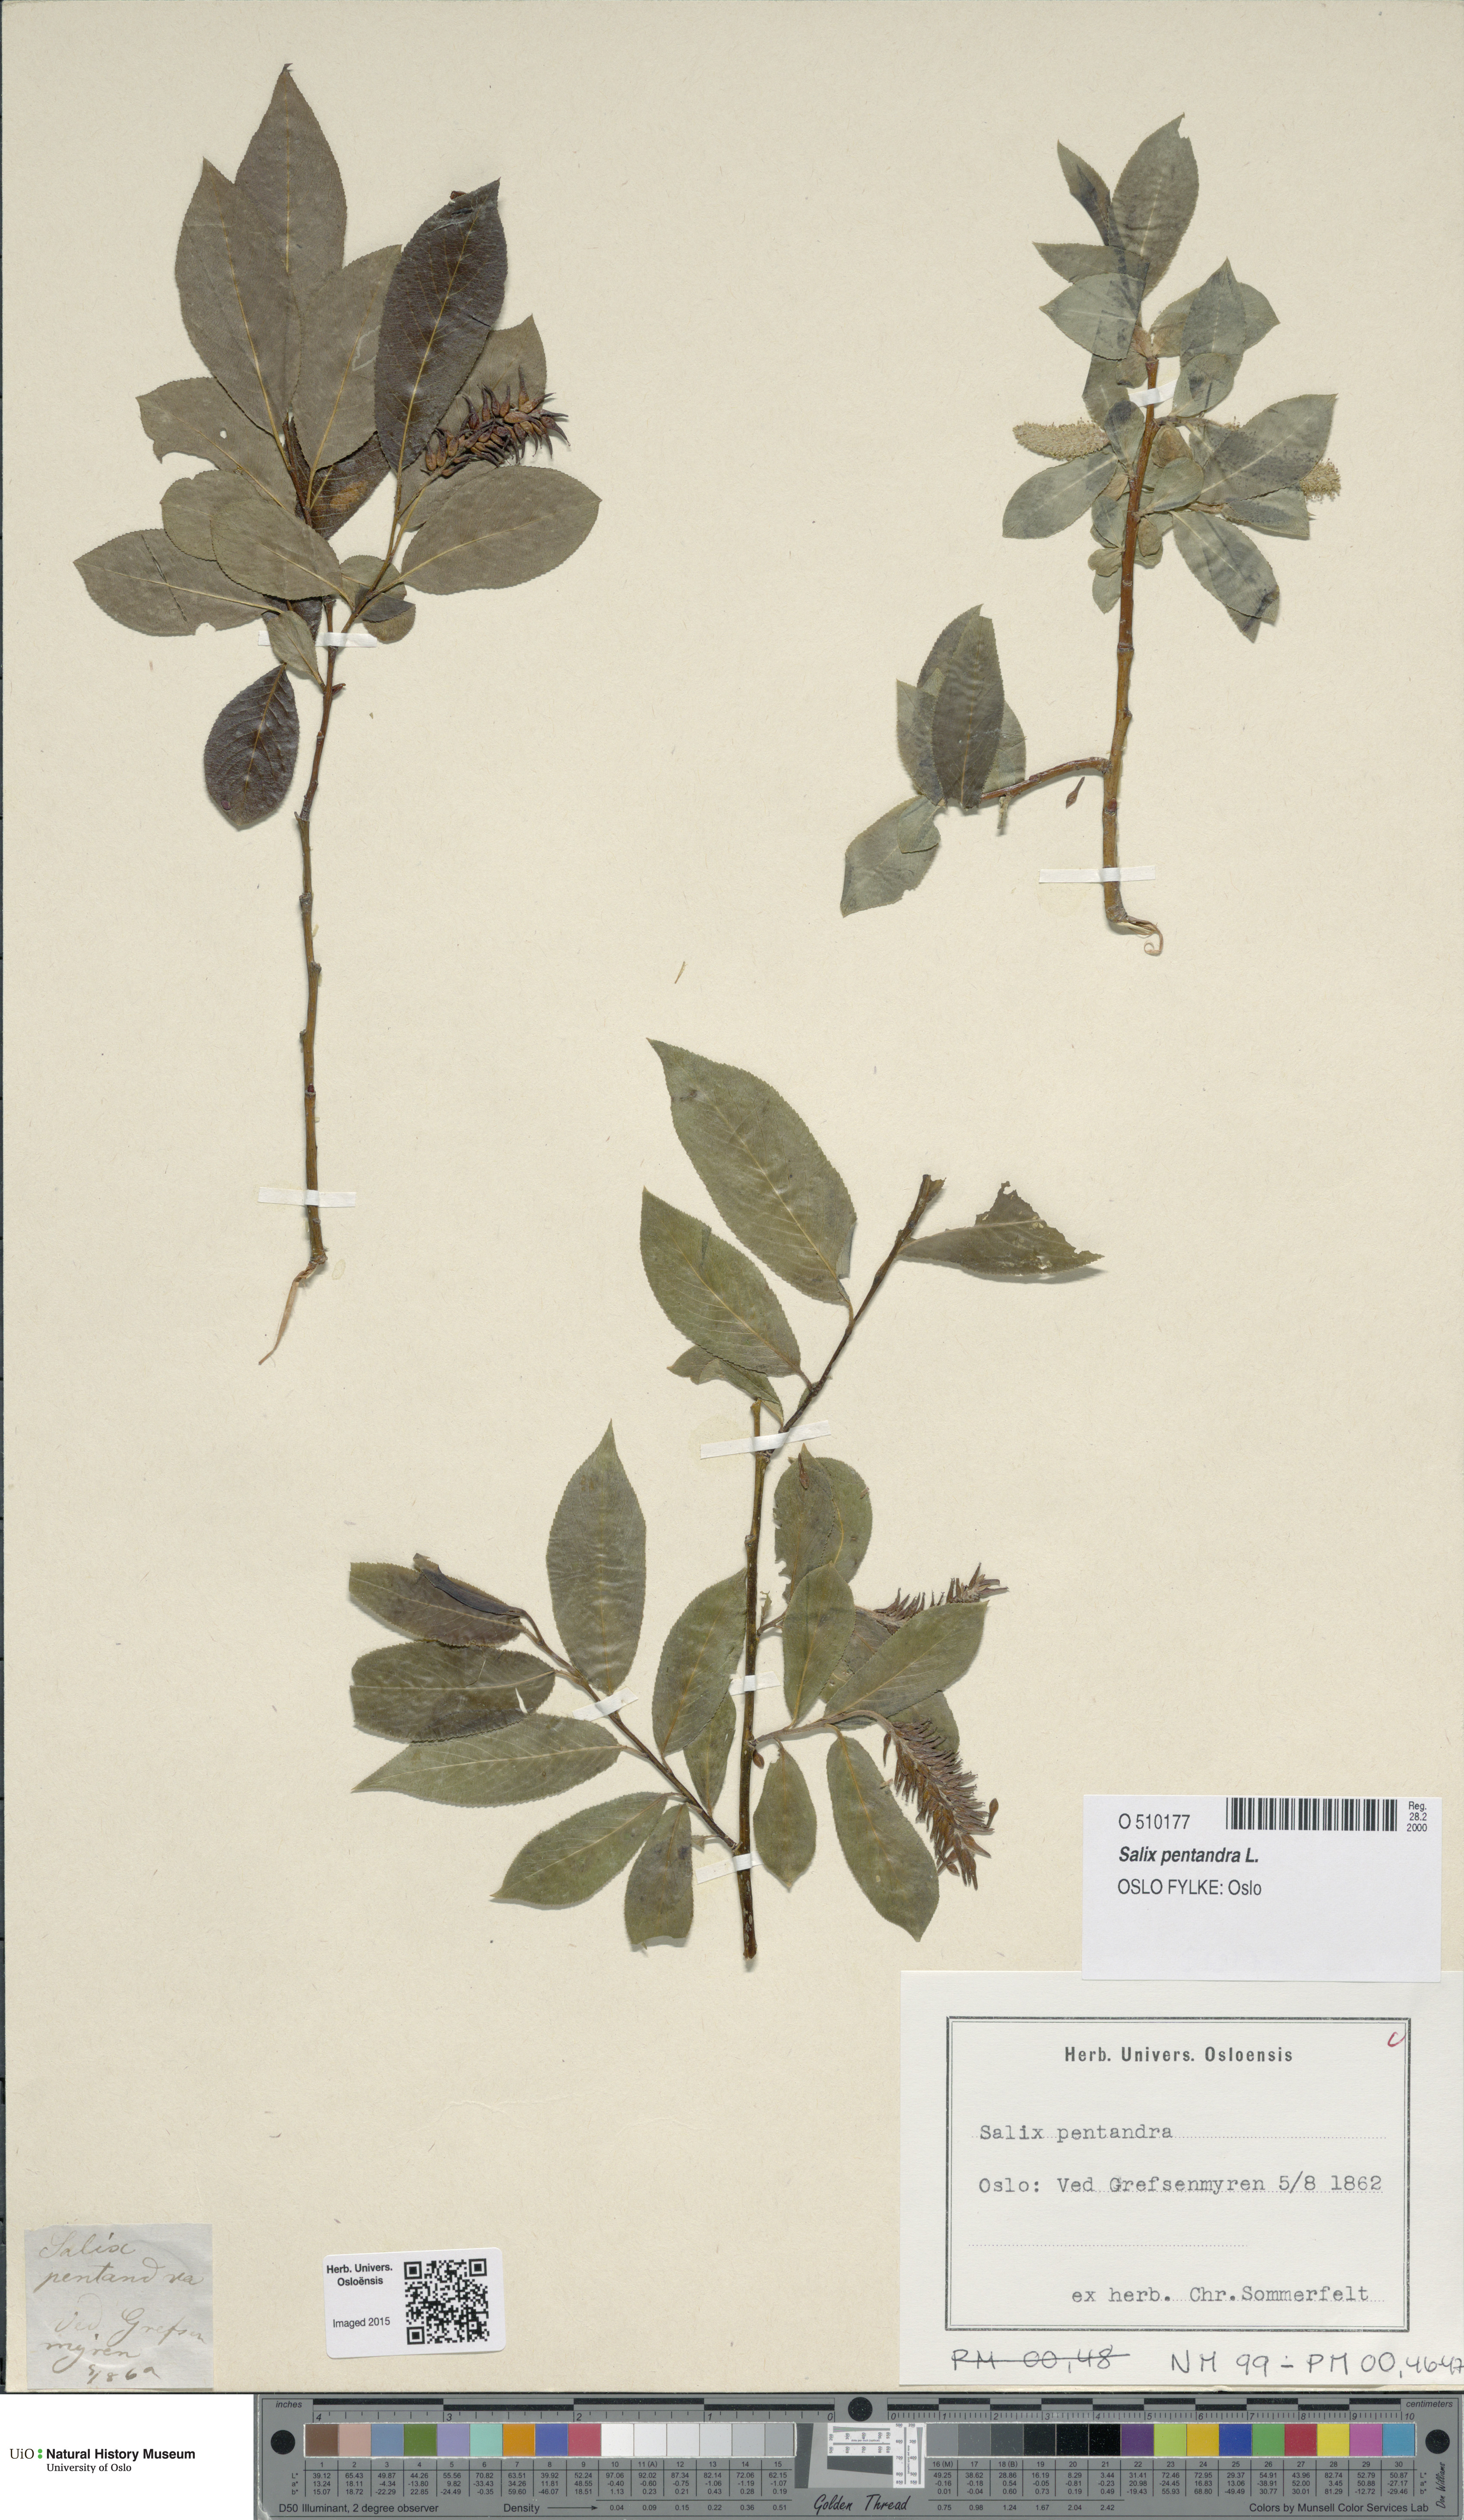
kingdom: Plantae
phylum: Tracheophyta
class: Magnoliopsida
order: Malpighiales
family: Salicaceae
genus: Salix
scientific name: Salix pentandra
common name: Bay willow
